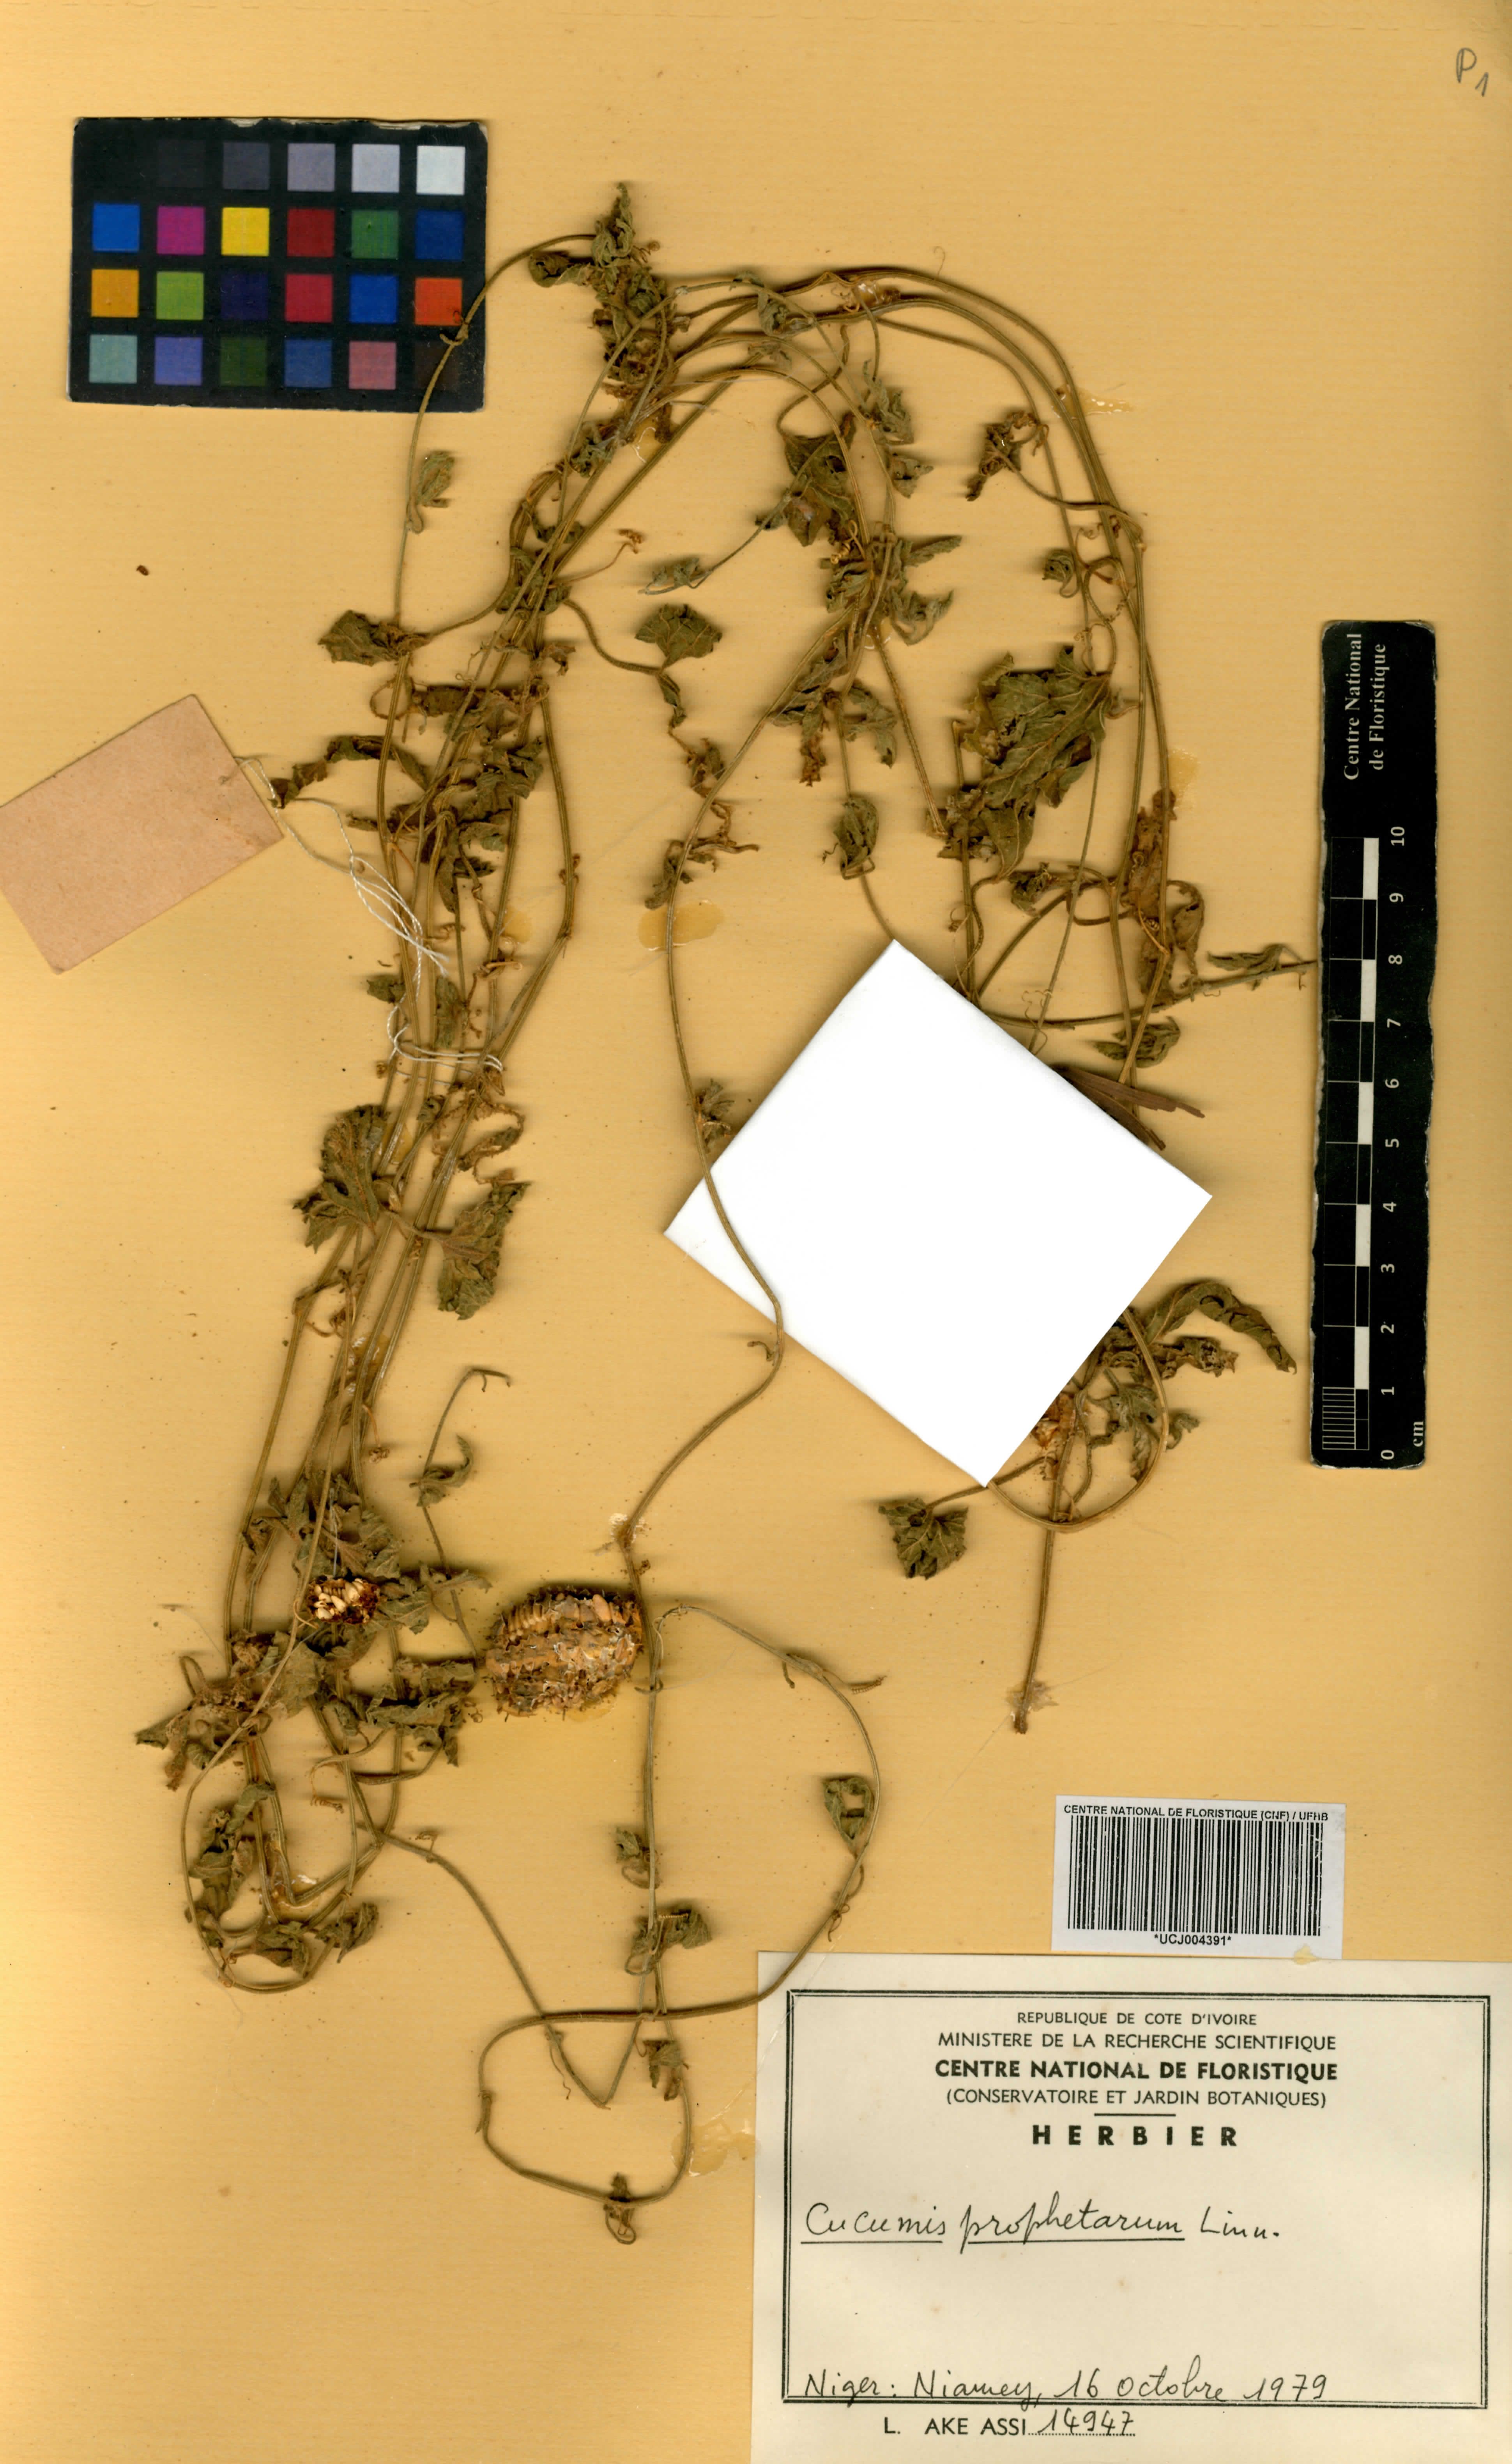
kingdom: Plantae
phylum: Tracheophyta
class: Magnoliopsida
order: Cucurbitales
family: Cucurbitaceae
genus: Cucumis
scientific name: Cucumis prophetarum
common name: Wild cucumber
